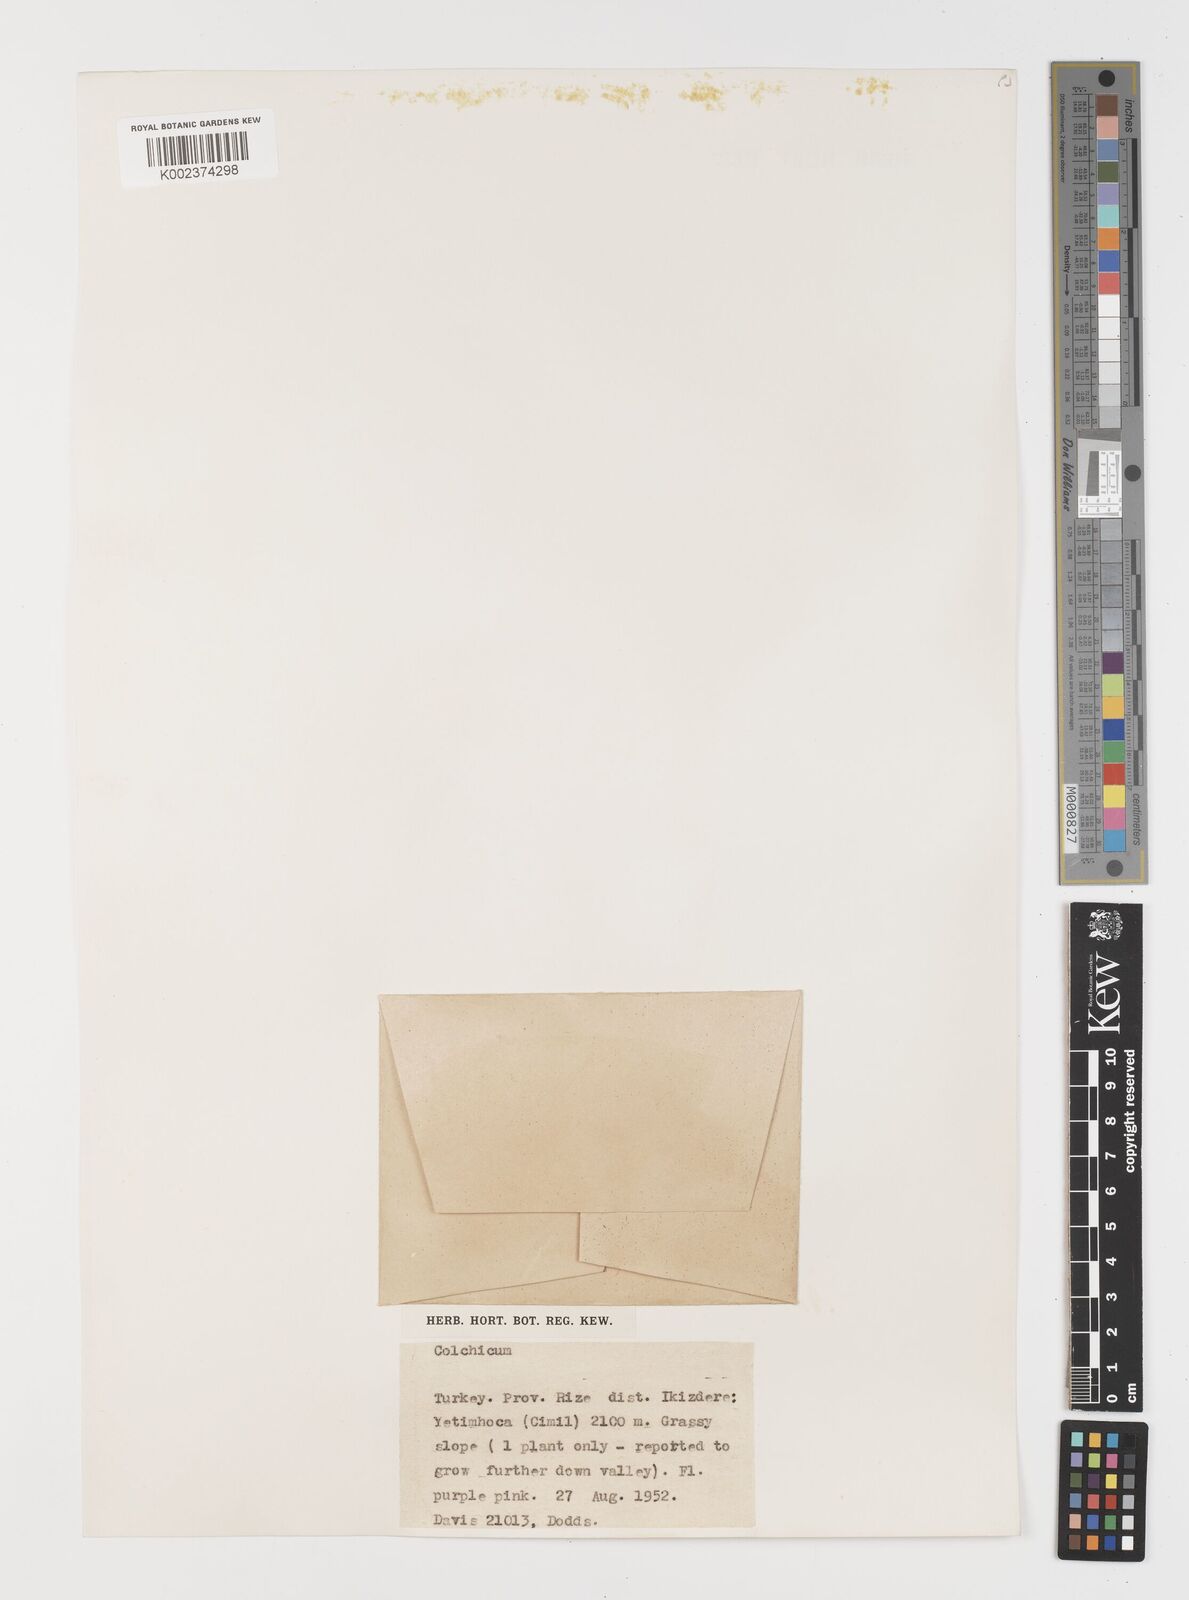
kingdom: Plantae
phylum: Tracheophyta
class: Liliopsida
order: Liliales
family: Colchicaceae
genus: Colchicum
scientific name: Colchicum
